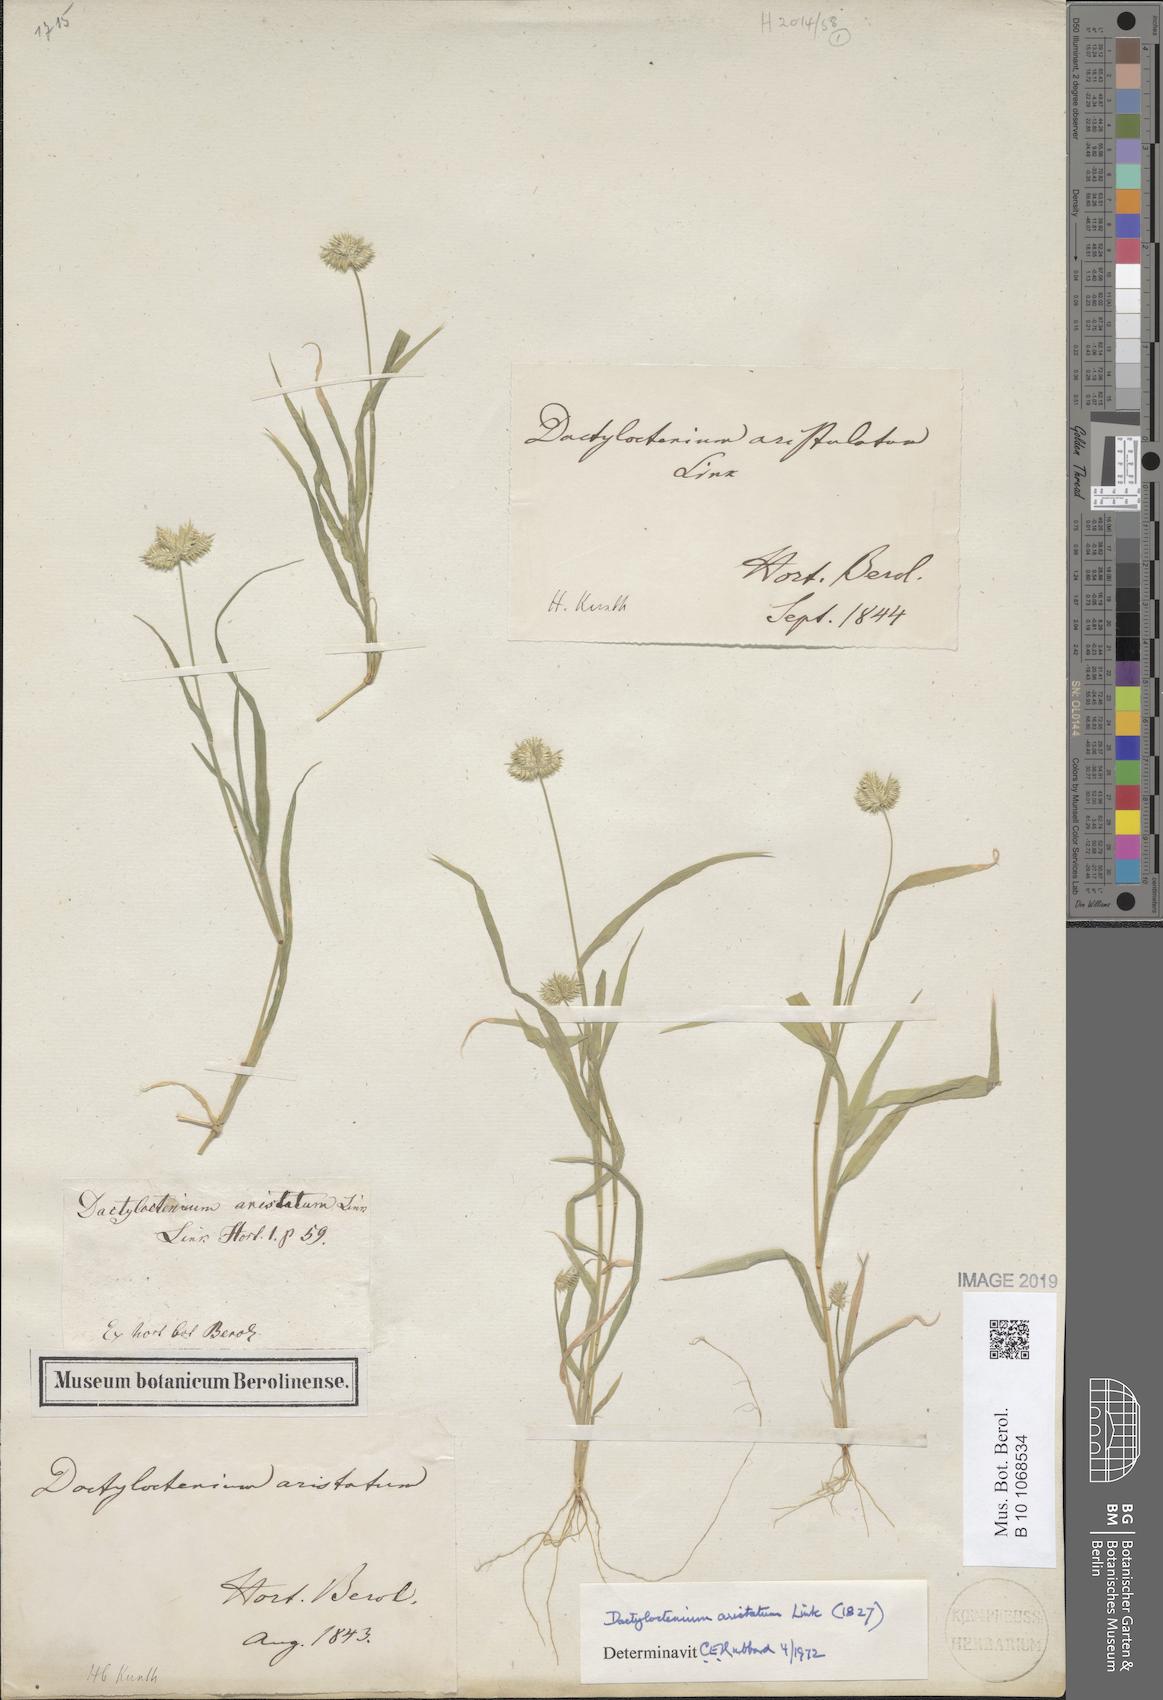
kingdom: Plantae
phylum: Tracheophyta
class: Liliopsida
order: Poales
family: Poaceae
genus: Dactyloctenium
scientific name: Dactyloctenium aristatum
